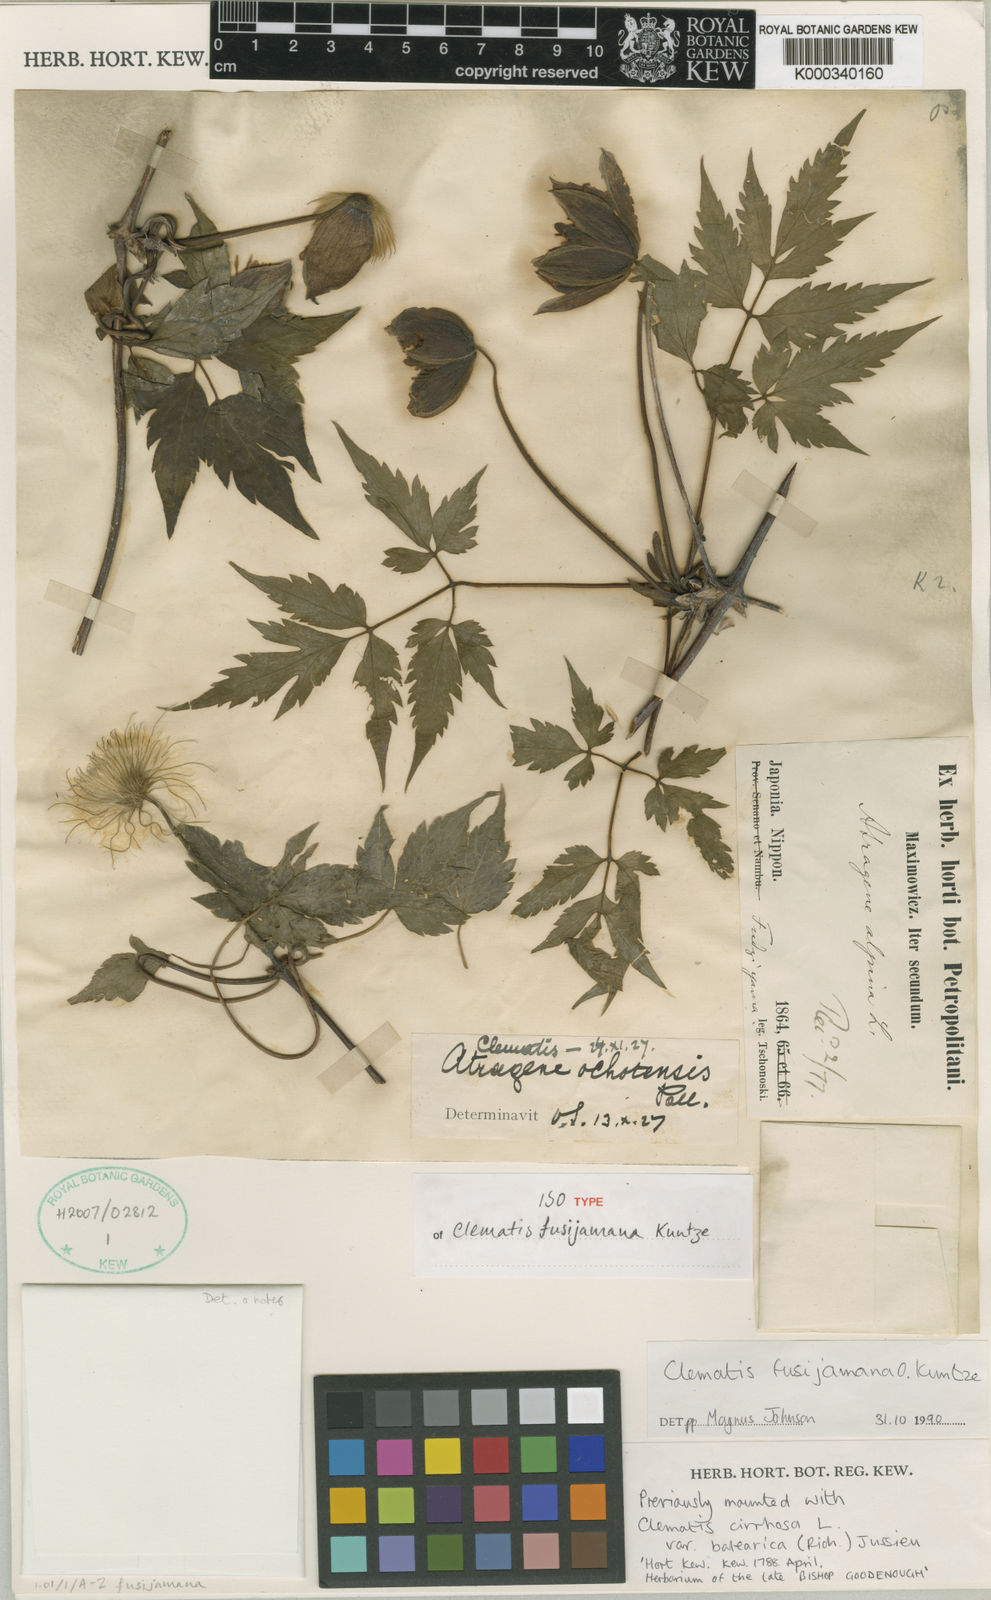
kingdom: Plantae
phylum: Tracheophyta
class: Magnoliopsida
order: Ranunculales
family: Ranunculaceae
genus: Clematis
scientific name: Clematis ochotensis
